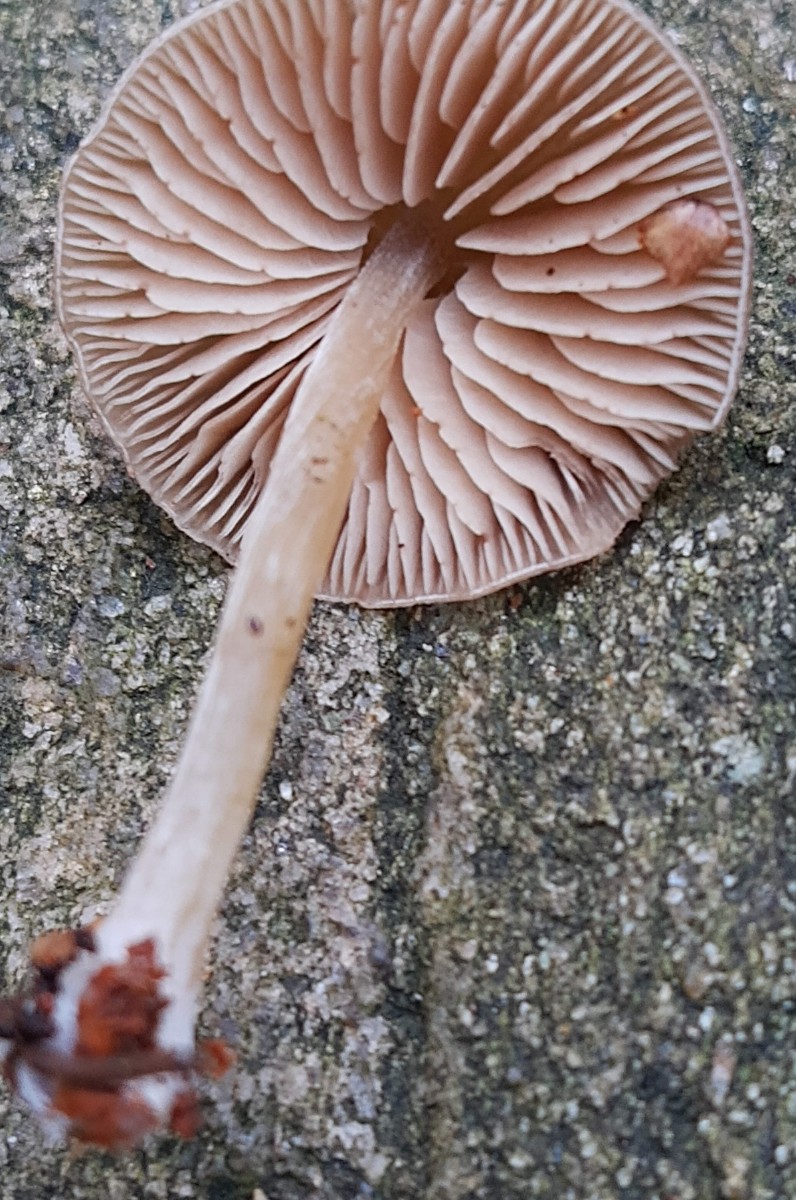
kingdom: Fungi
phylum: Basidiomycota
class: Agaricomycetes
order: Agaricales
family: Entolomataceae
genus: Entoloma
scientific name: Entoloma cetratum
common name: voks-rødblad
